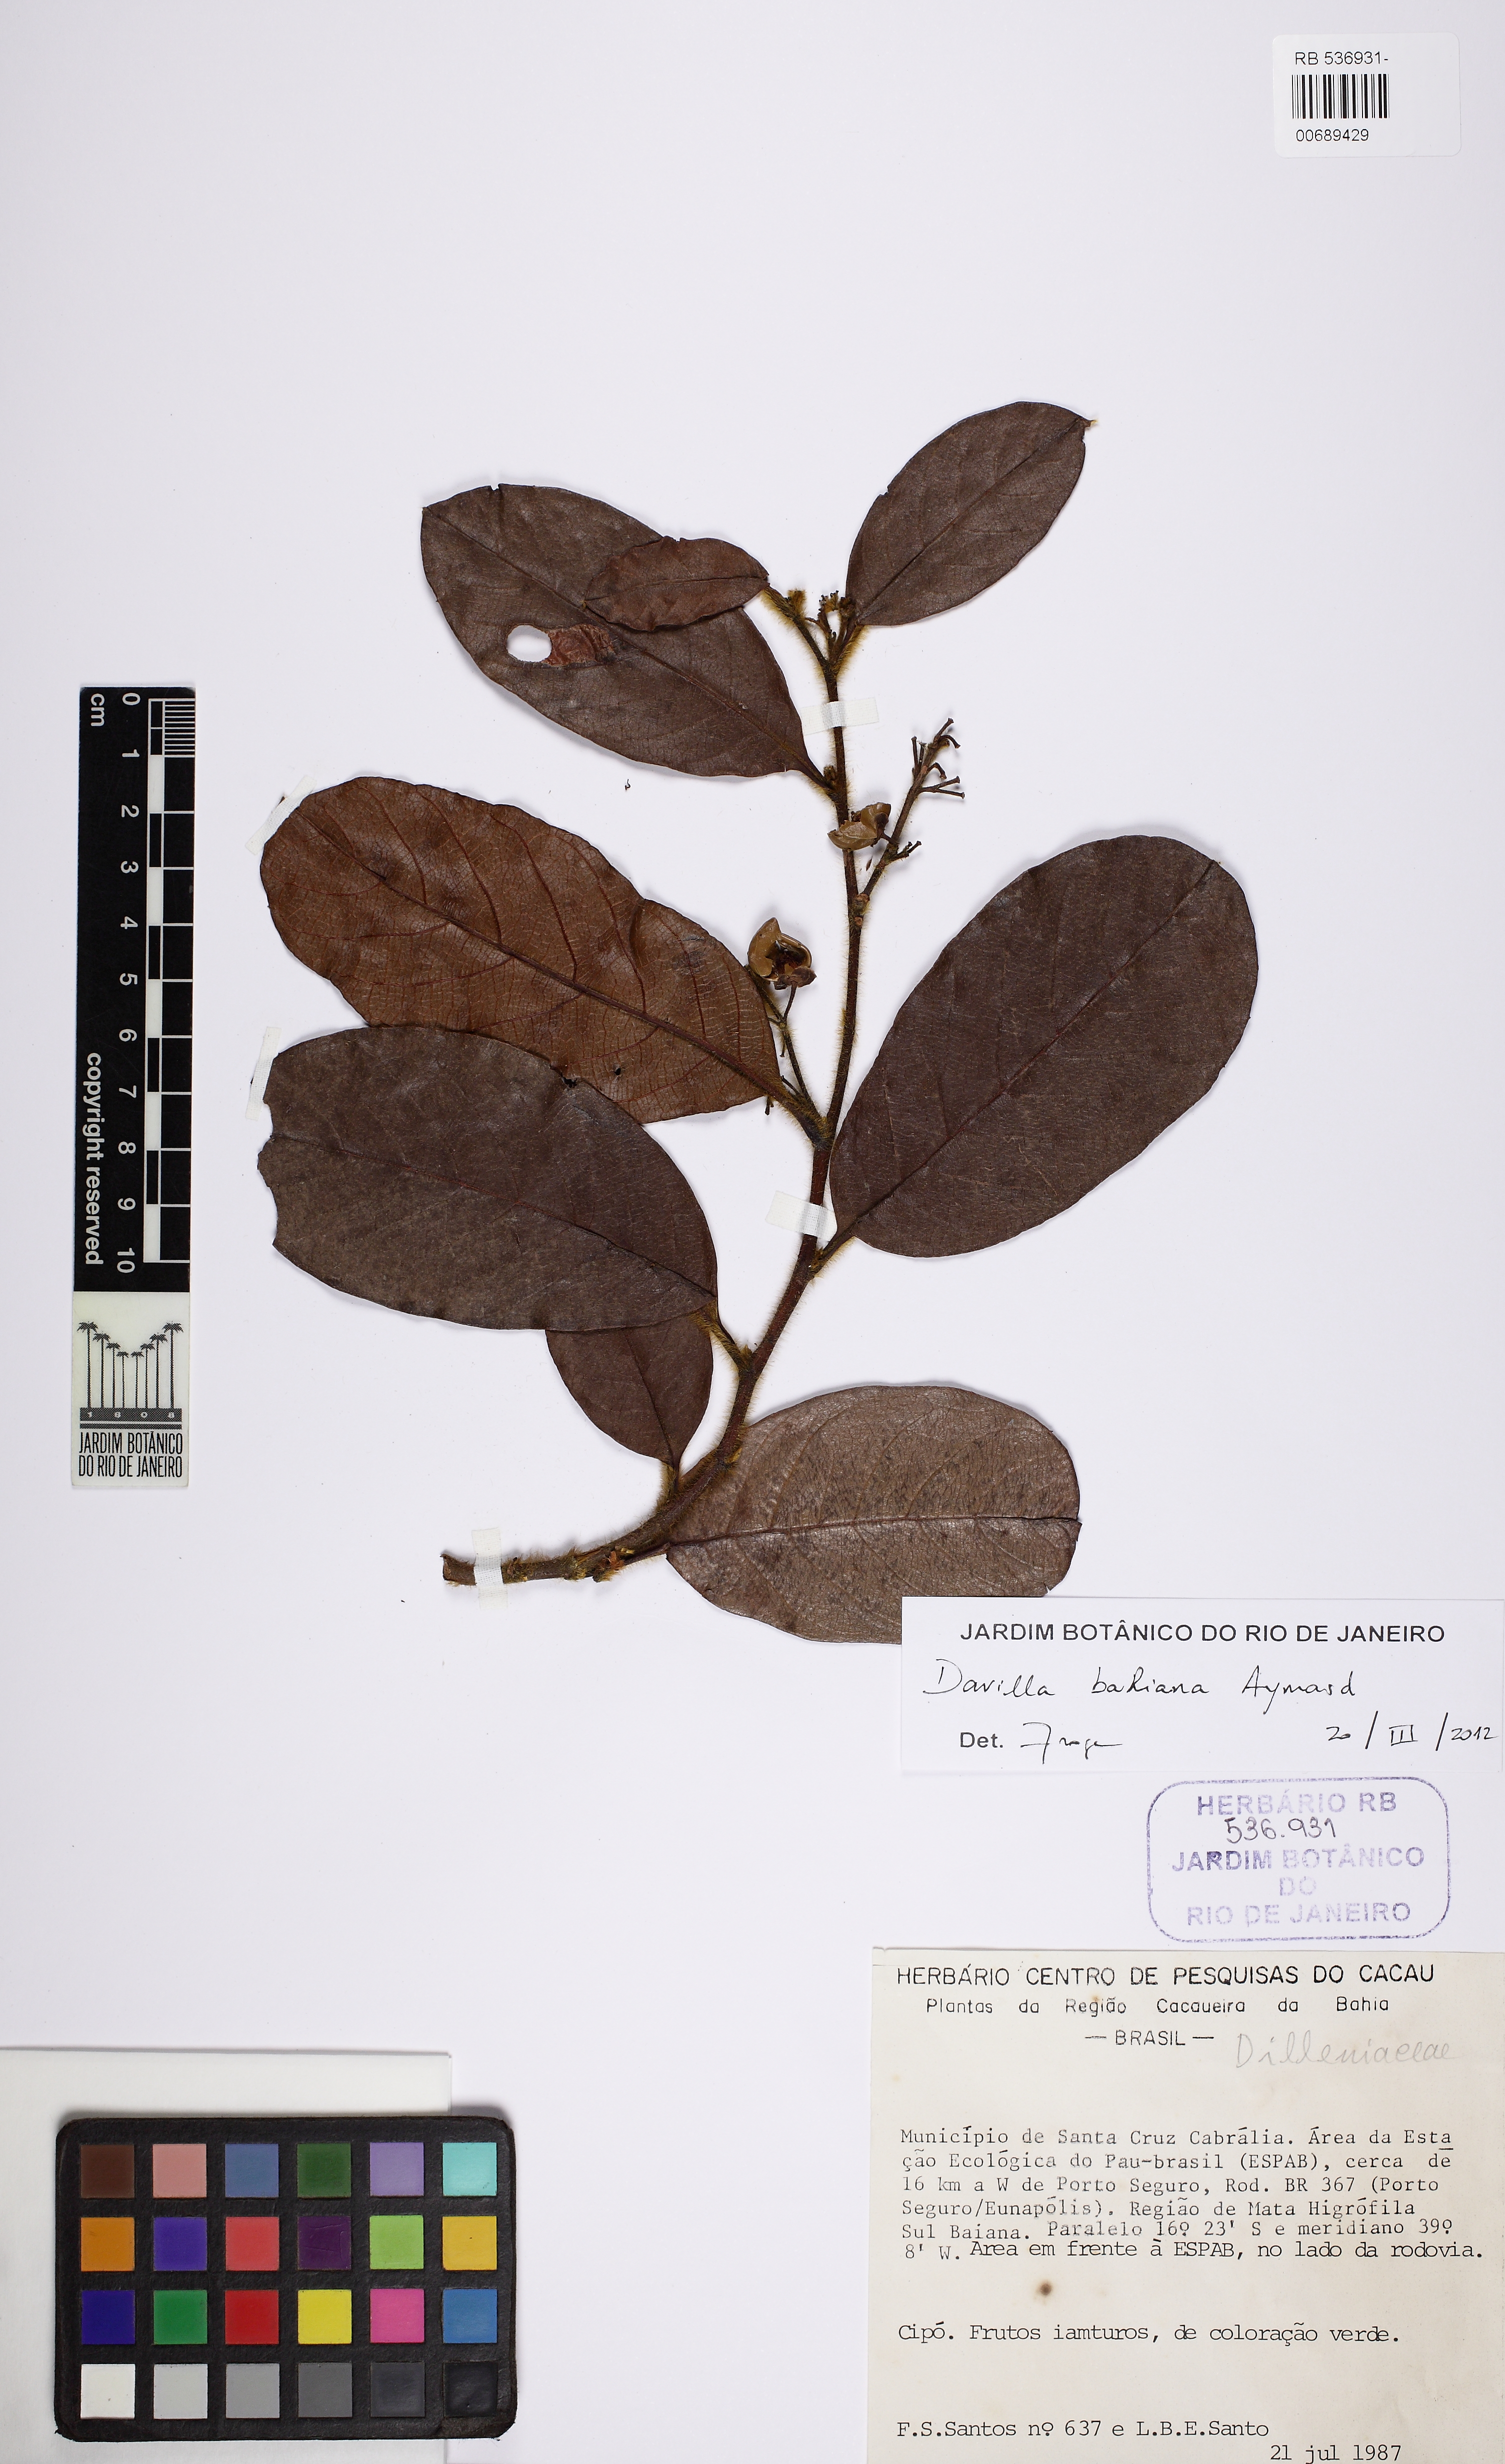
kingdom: Plantae
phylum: Tracheophyta
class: Magnoliopsida
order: Dilleniales
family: Dilleniaceae
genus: Davilla
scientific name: Davilla bahiana
